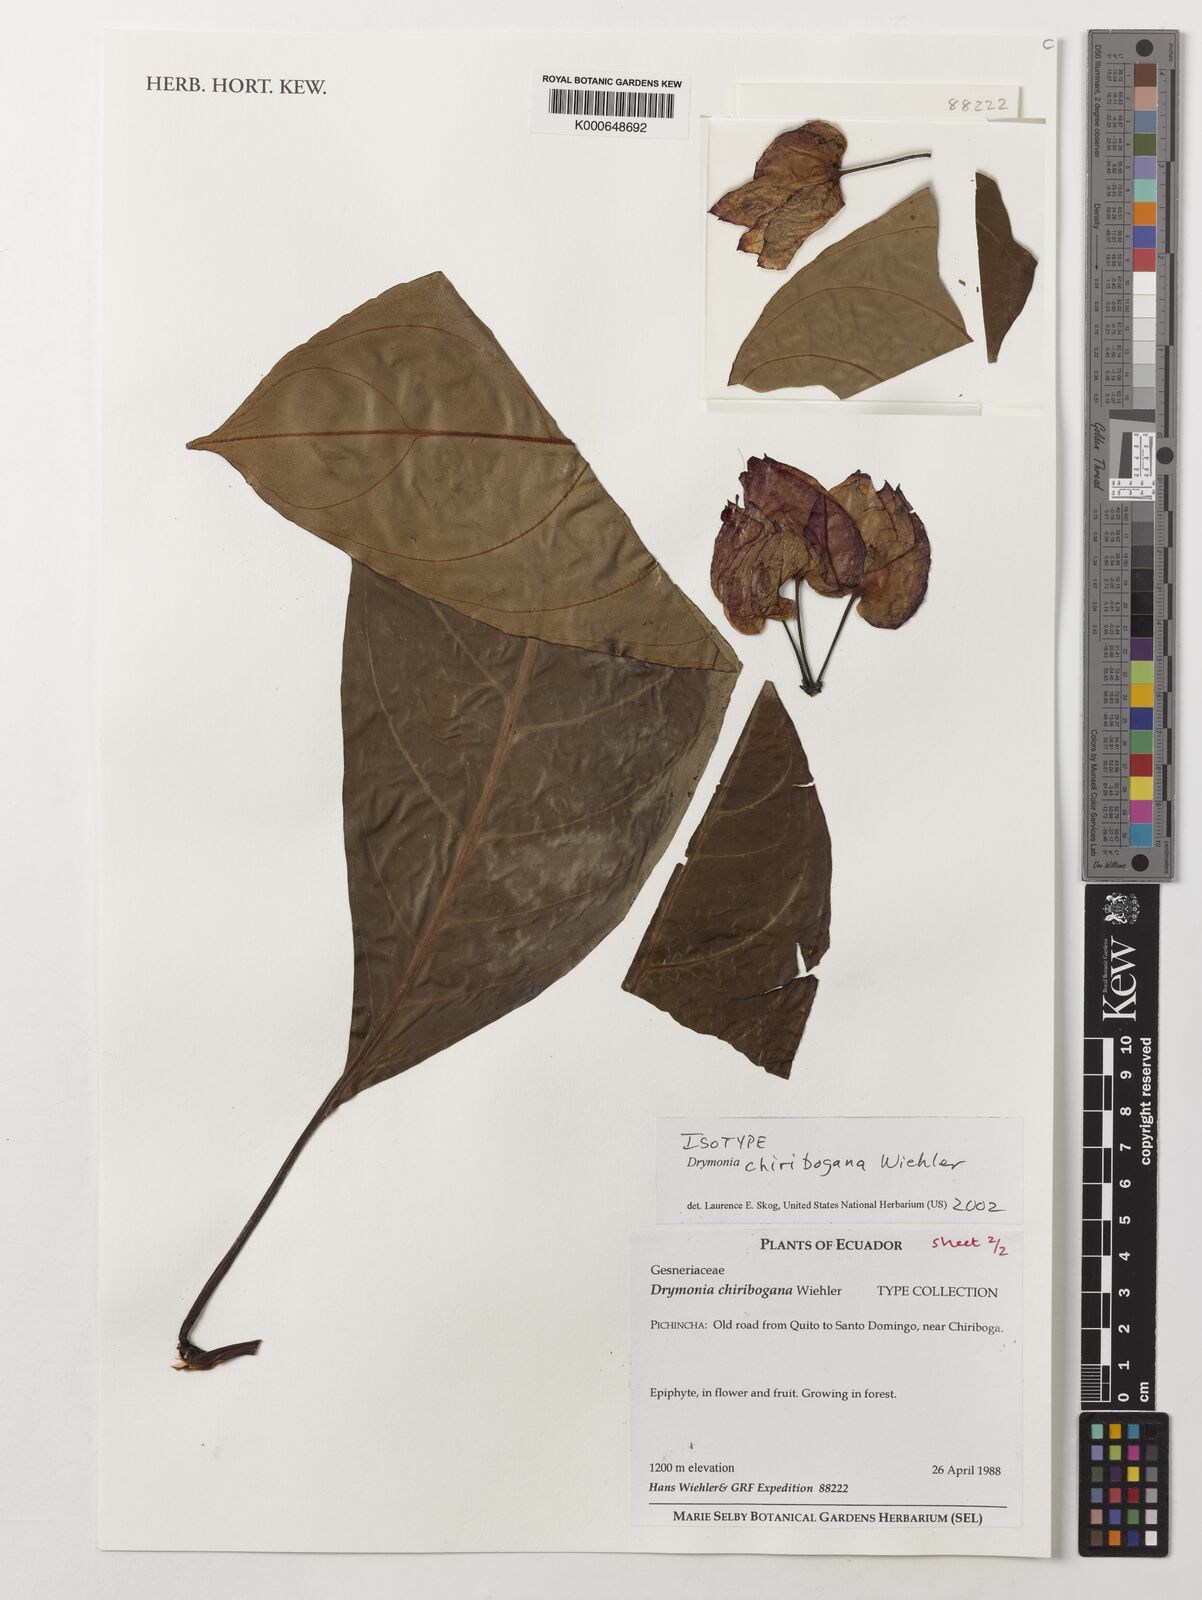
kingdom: Plantae
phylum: Tracheophyta
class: Magnoliopsida
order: Lamiales
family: Gesneriaceae
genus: Drymonia
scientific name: Drymonia chiribogana
